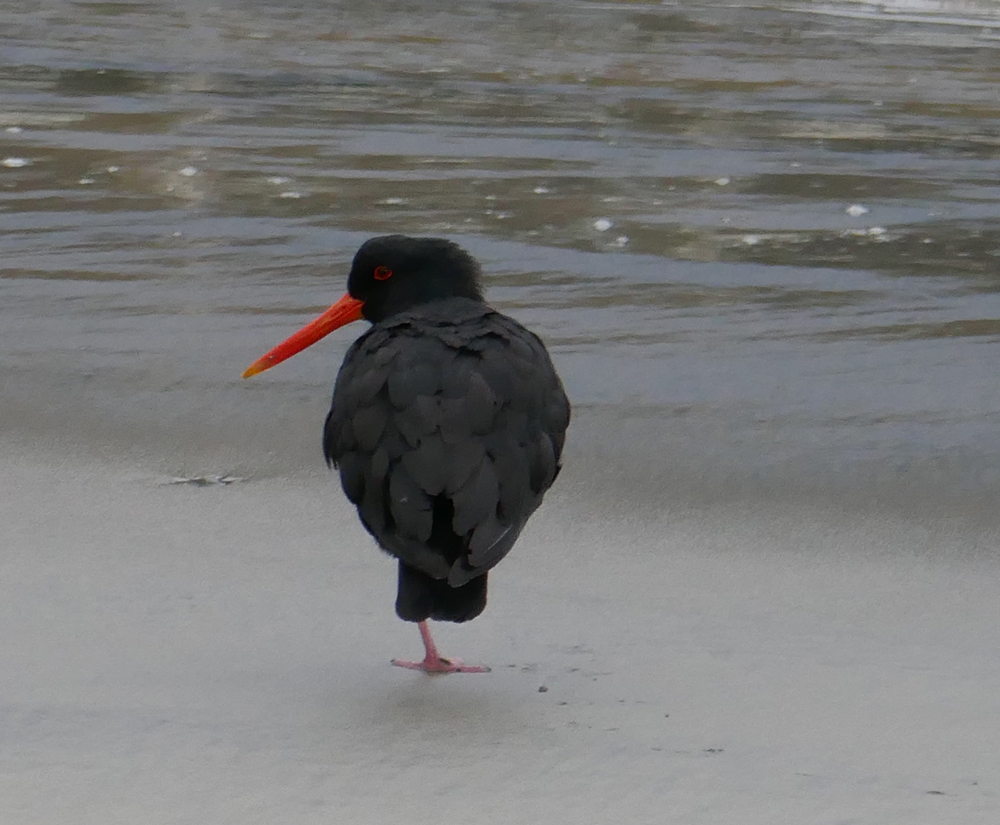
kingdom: Animalia
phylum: Chordata
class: Aves
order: Charadriiformes
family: Haematopodidae
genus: Haematopus
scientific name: Haematopus unicolor
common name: Variable oystercatcher
